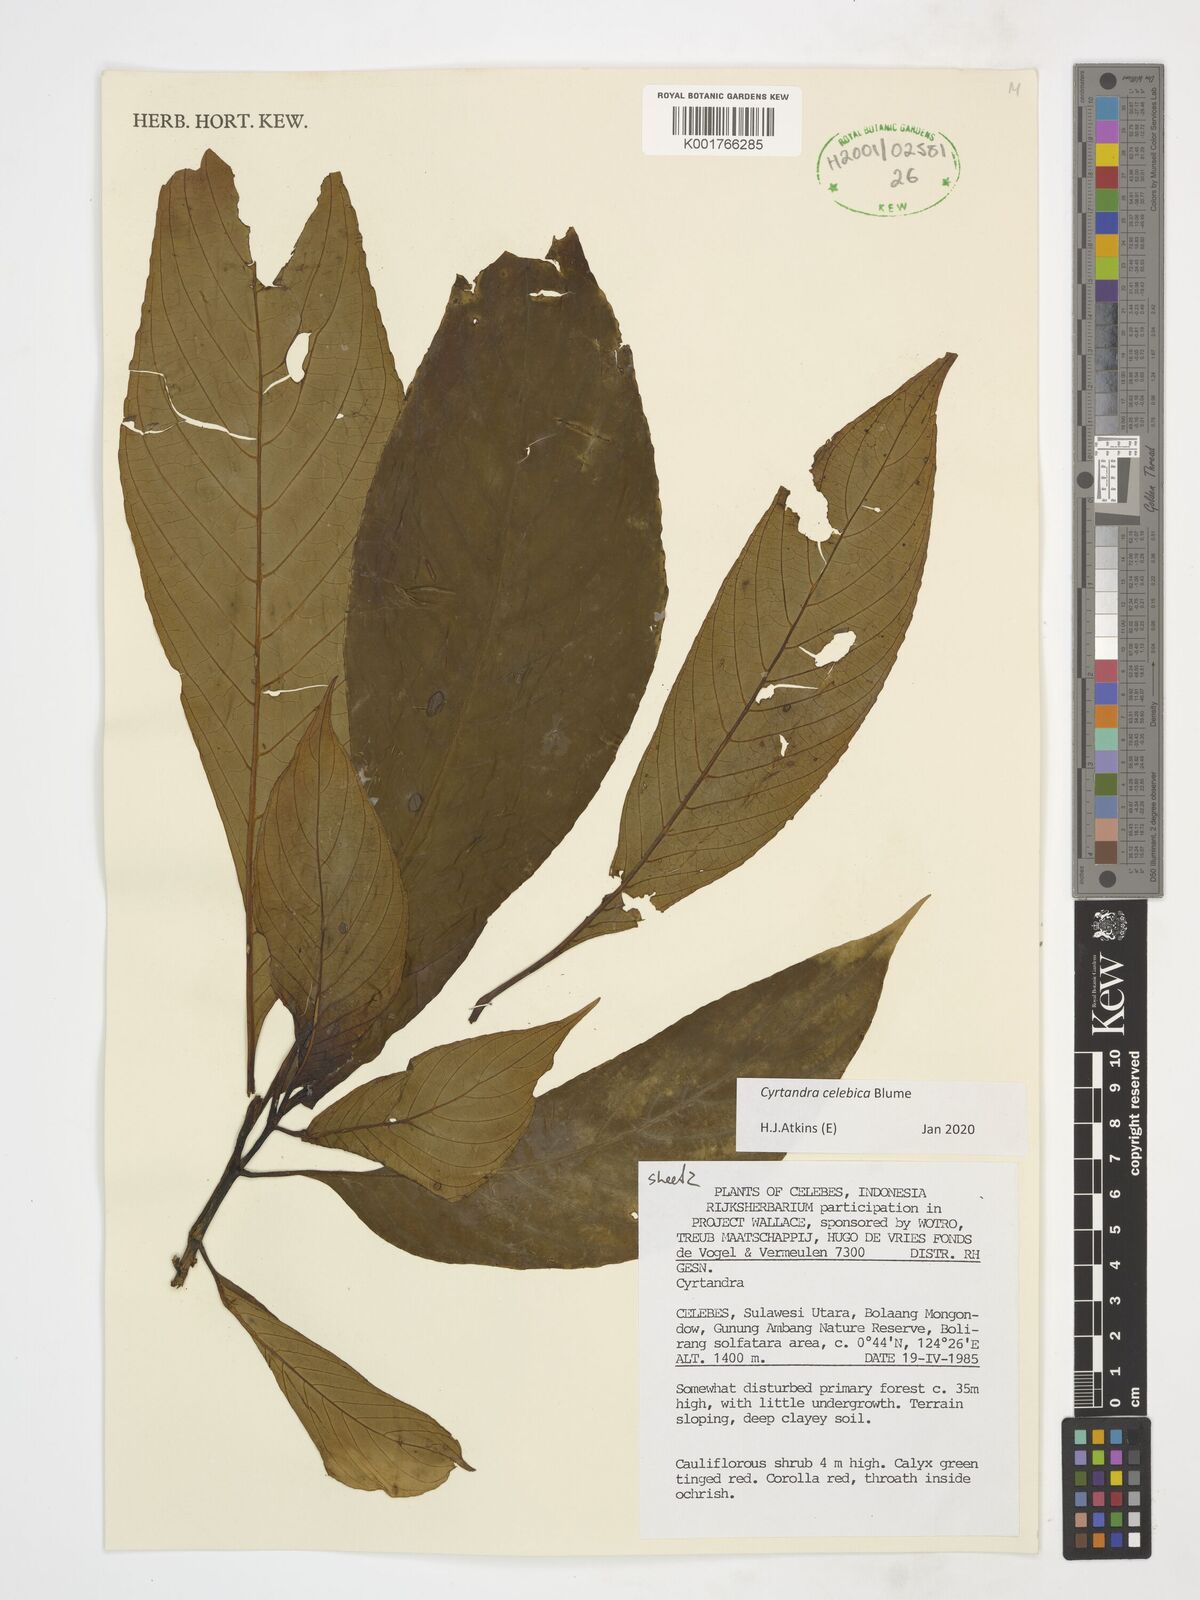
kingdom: Plantae
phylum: Tracheophyta
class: Magnoliopsida
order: Lamiales
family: Gesneriaceae
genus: Cyrtandra
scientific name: Cyrtandra coccinea
